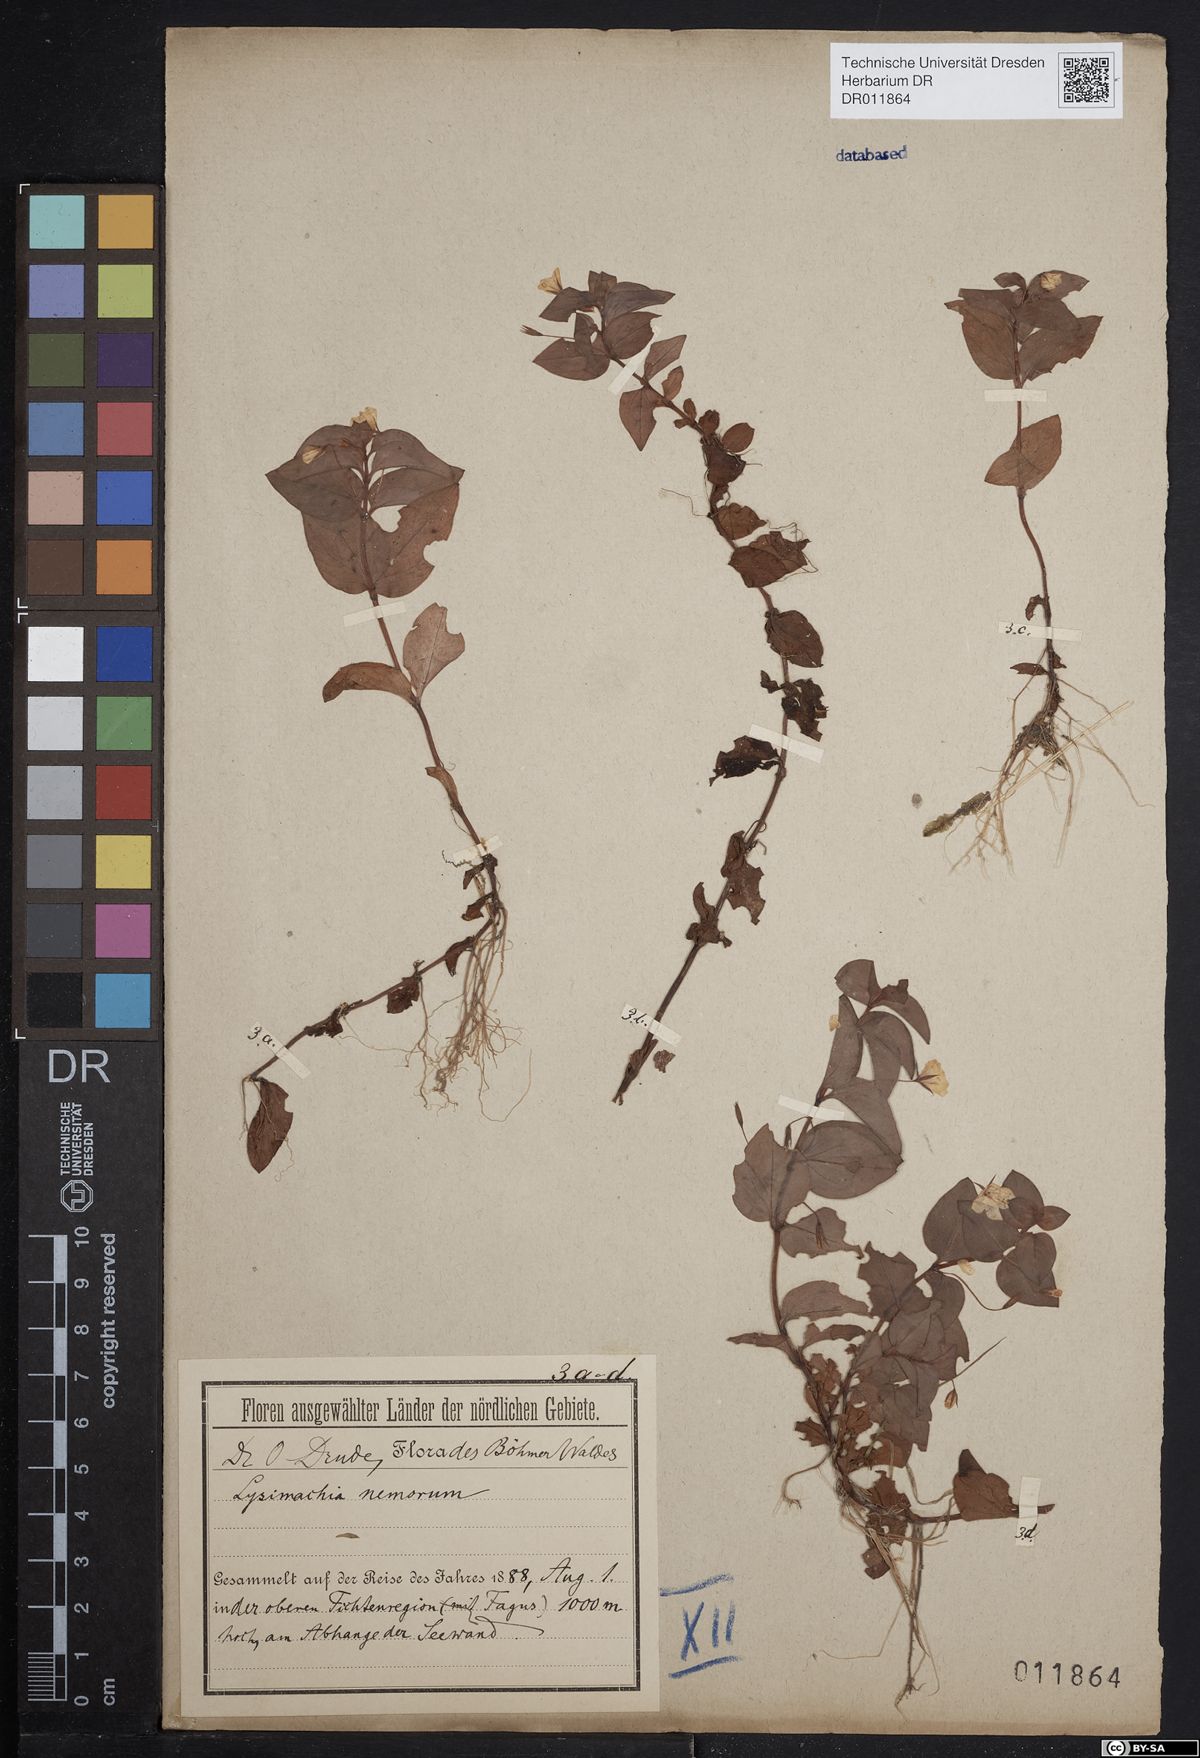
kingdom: Plantae
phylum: Tracheophyta
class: Magnoliopsida
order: Ericales
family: Primulaceae
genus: Lysimachia
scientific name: Lysimachia nemorum
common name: Yellow pimpernel
